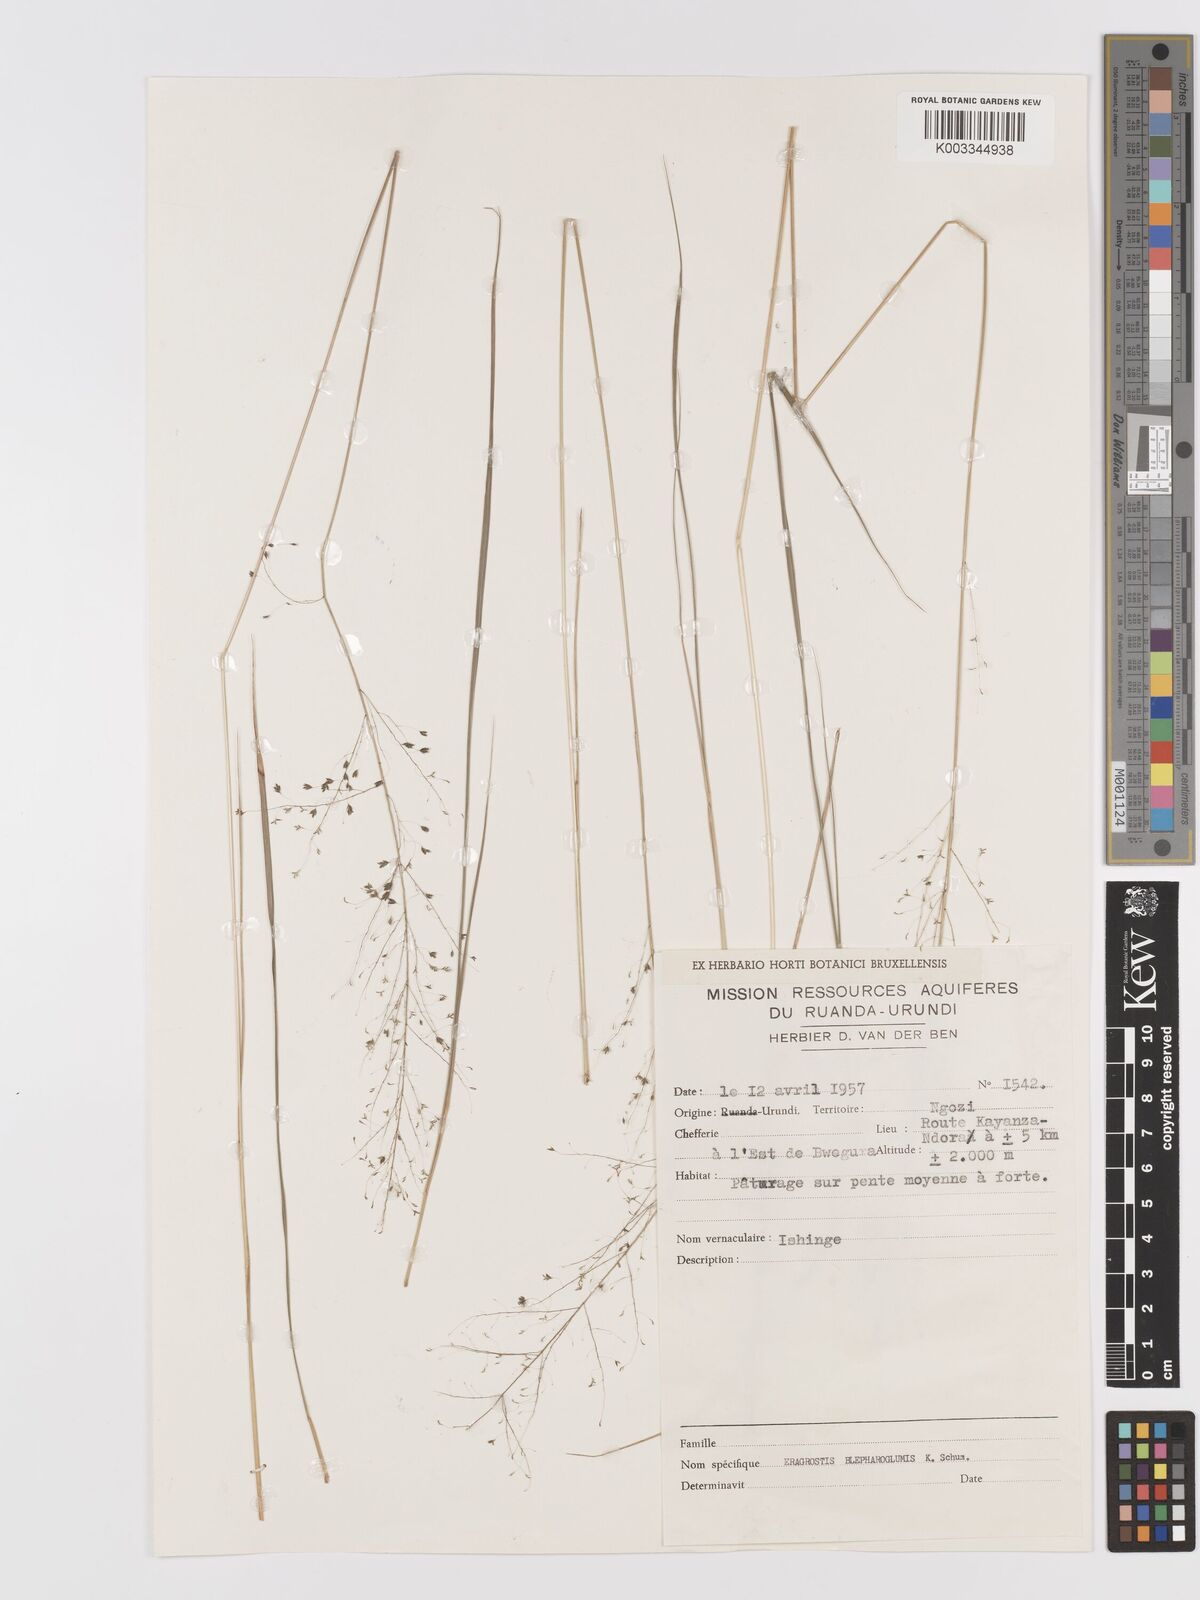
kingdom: Plantae
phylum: Tracheophyta
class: Liliopsida
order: Poales
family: Poaceae
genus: Eragrostis
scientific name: Eragrostis olivacea
